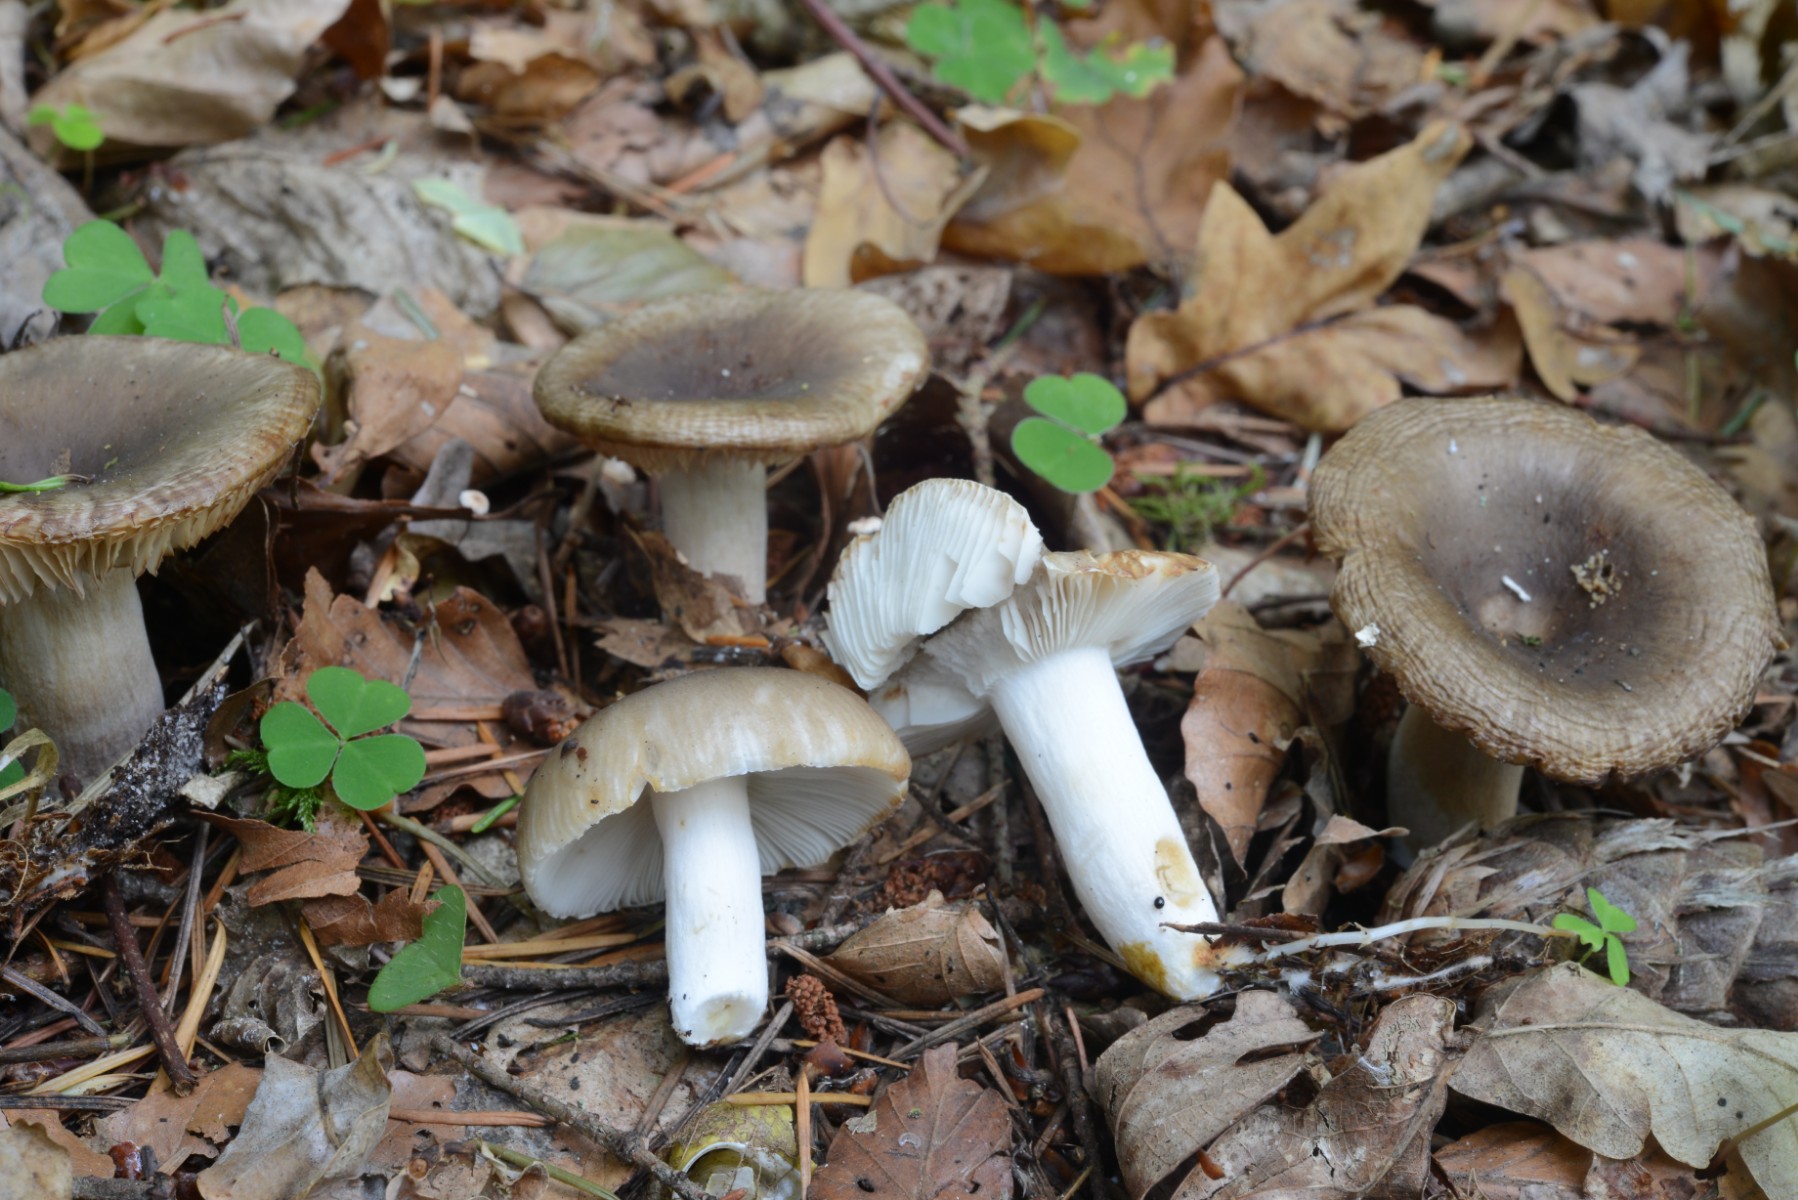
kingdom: Fungi
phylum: Basidiomycota
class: Agaricomycetes
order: Russulales
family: Russulaceae
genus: Russula
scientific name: Russula recondita
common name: mild kam-skørhat
